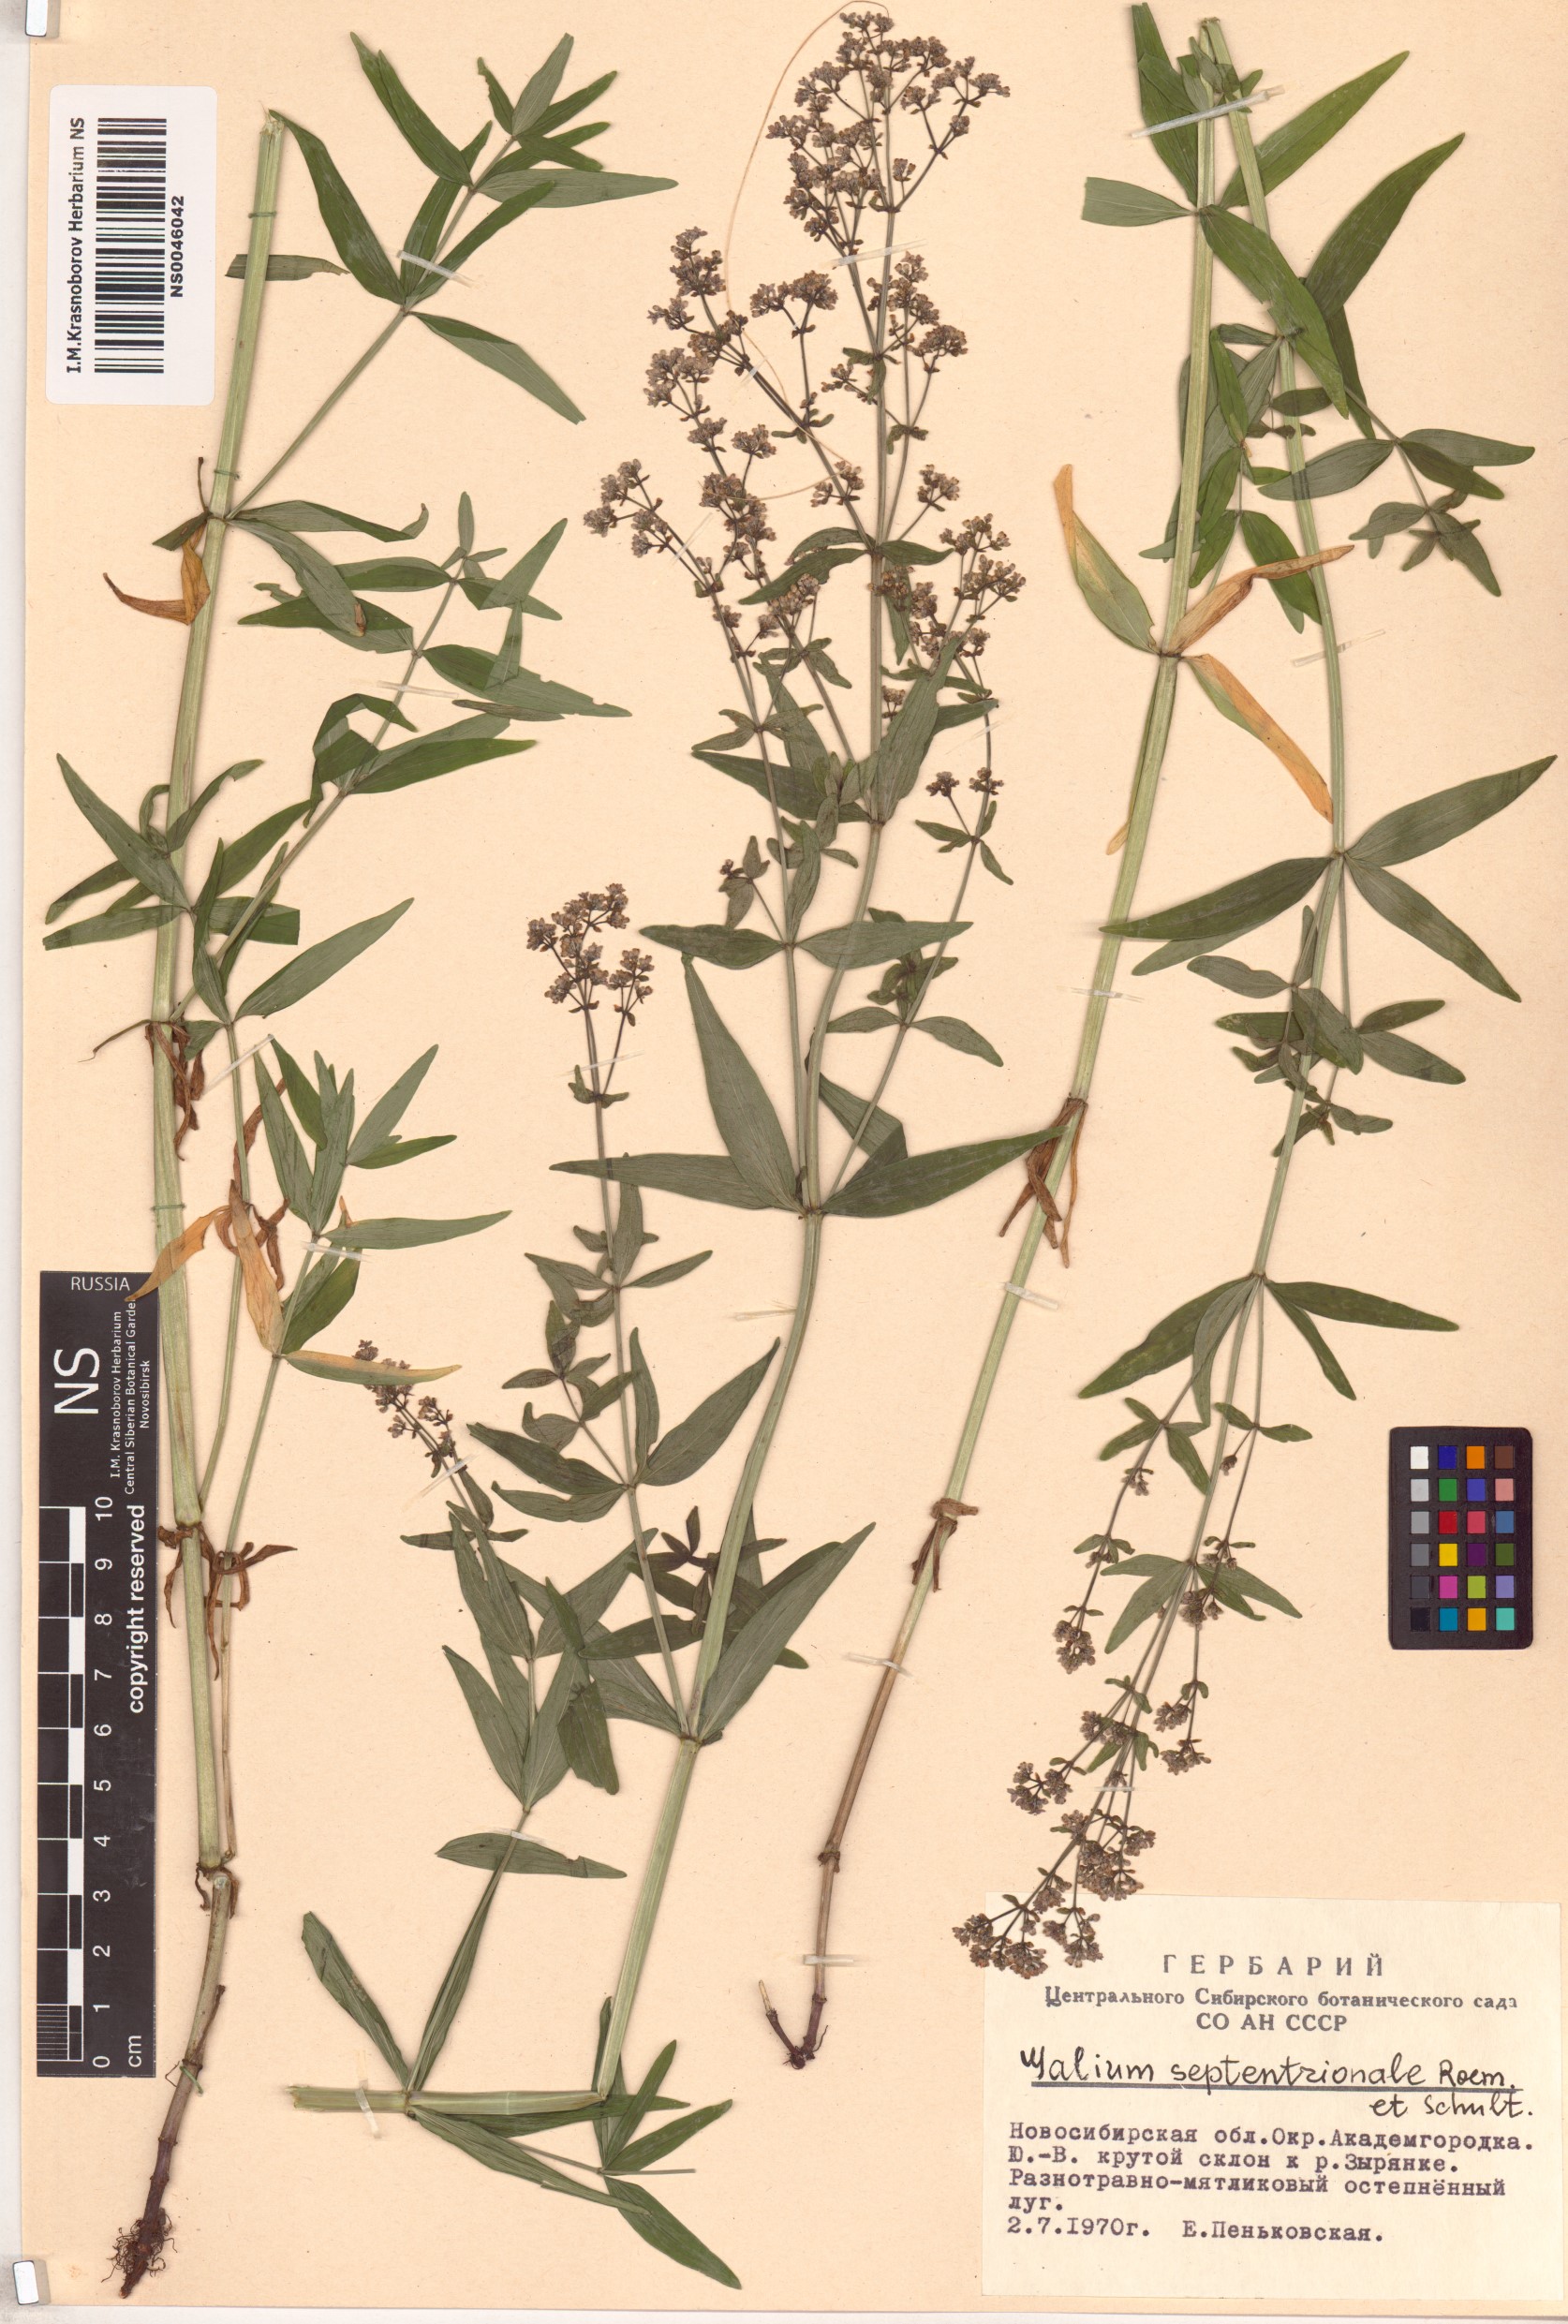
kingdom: Plantae
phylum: Tracheophyta
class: Magnoliopsida
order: Gentianales
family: Rubiaceae
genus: Galium
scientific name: Galium boreale
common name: Northern bedstraw
